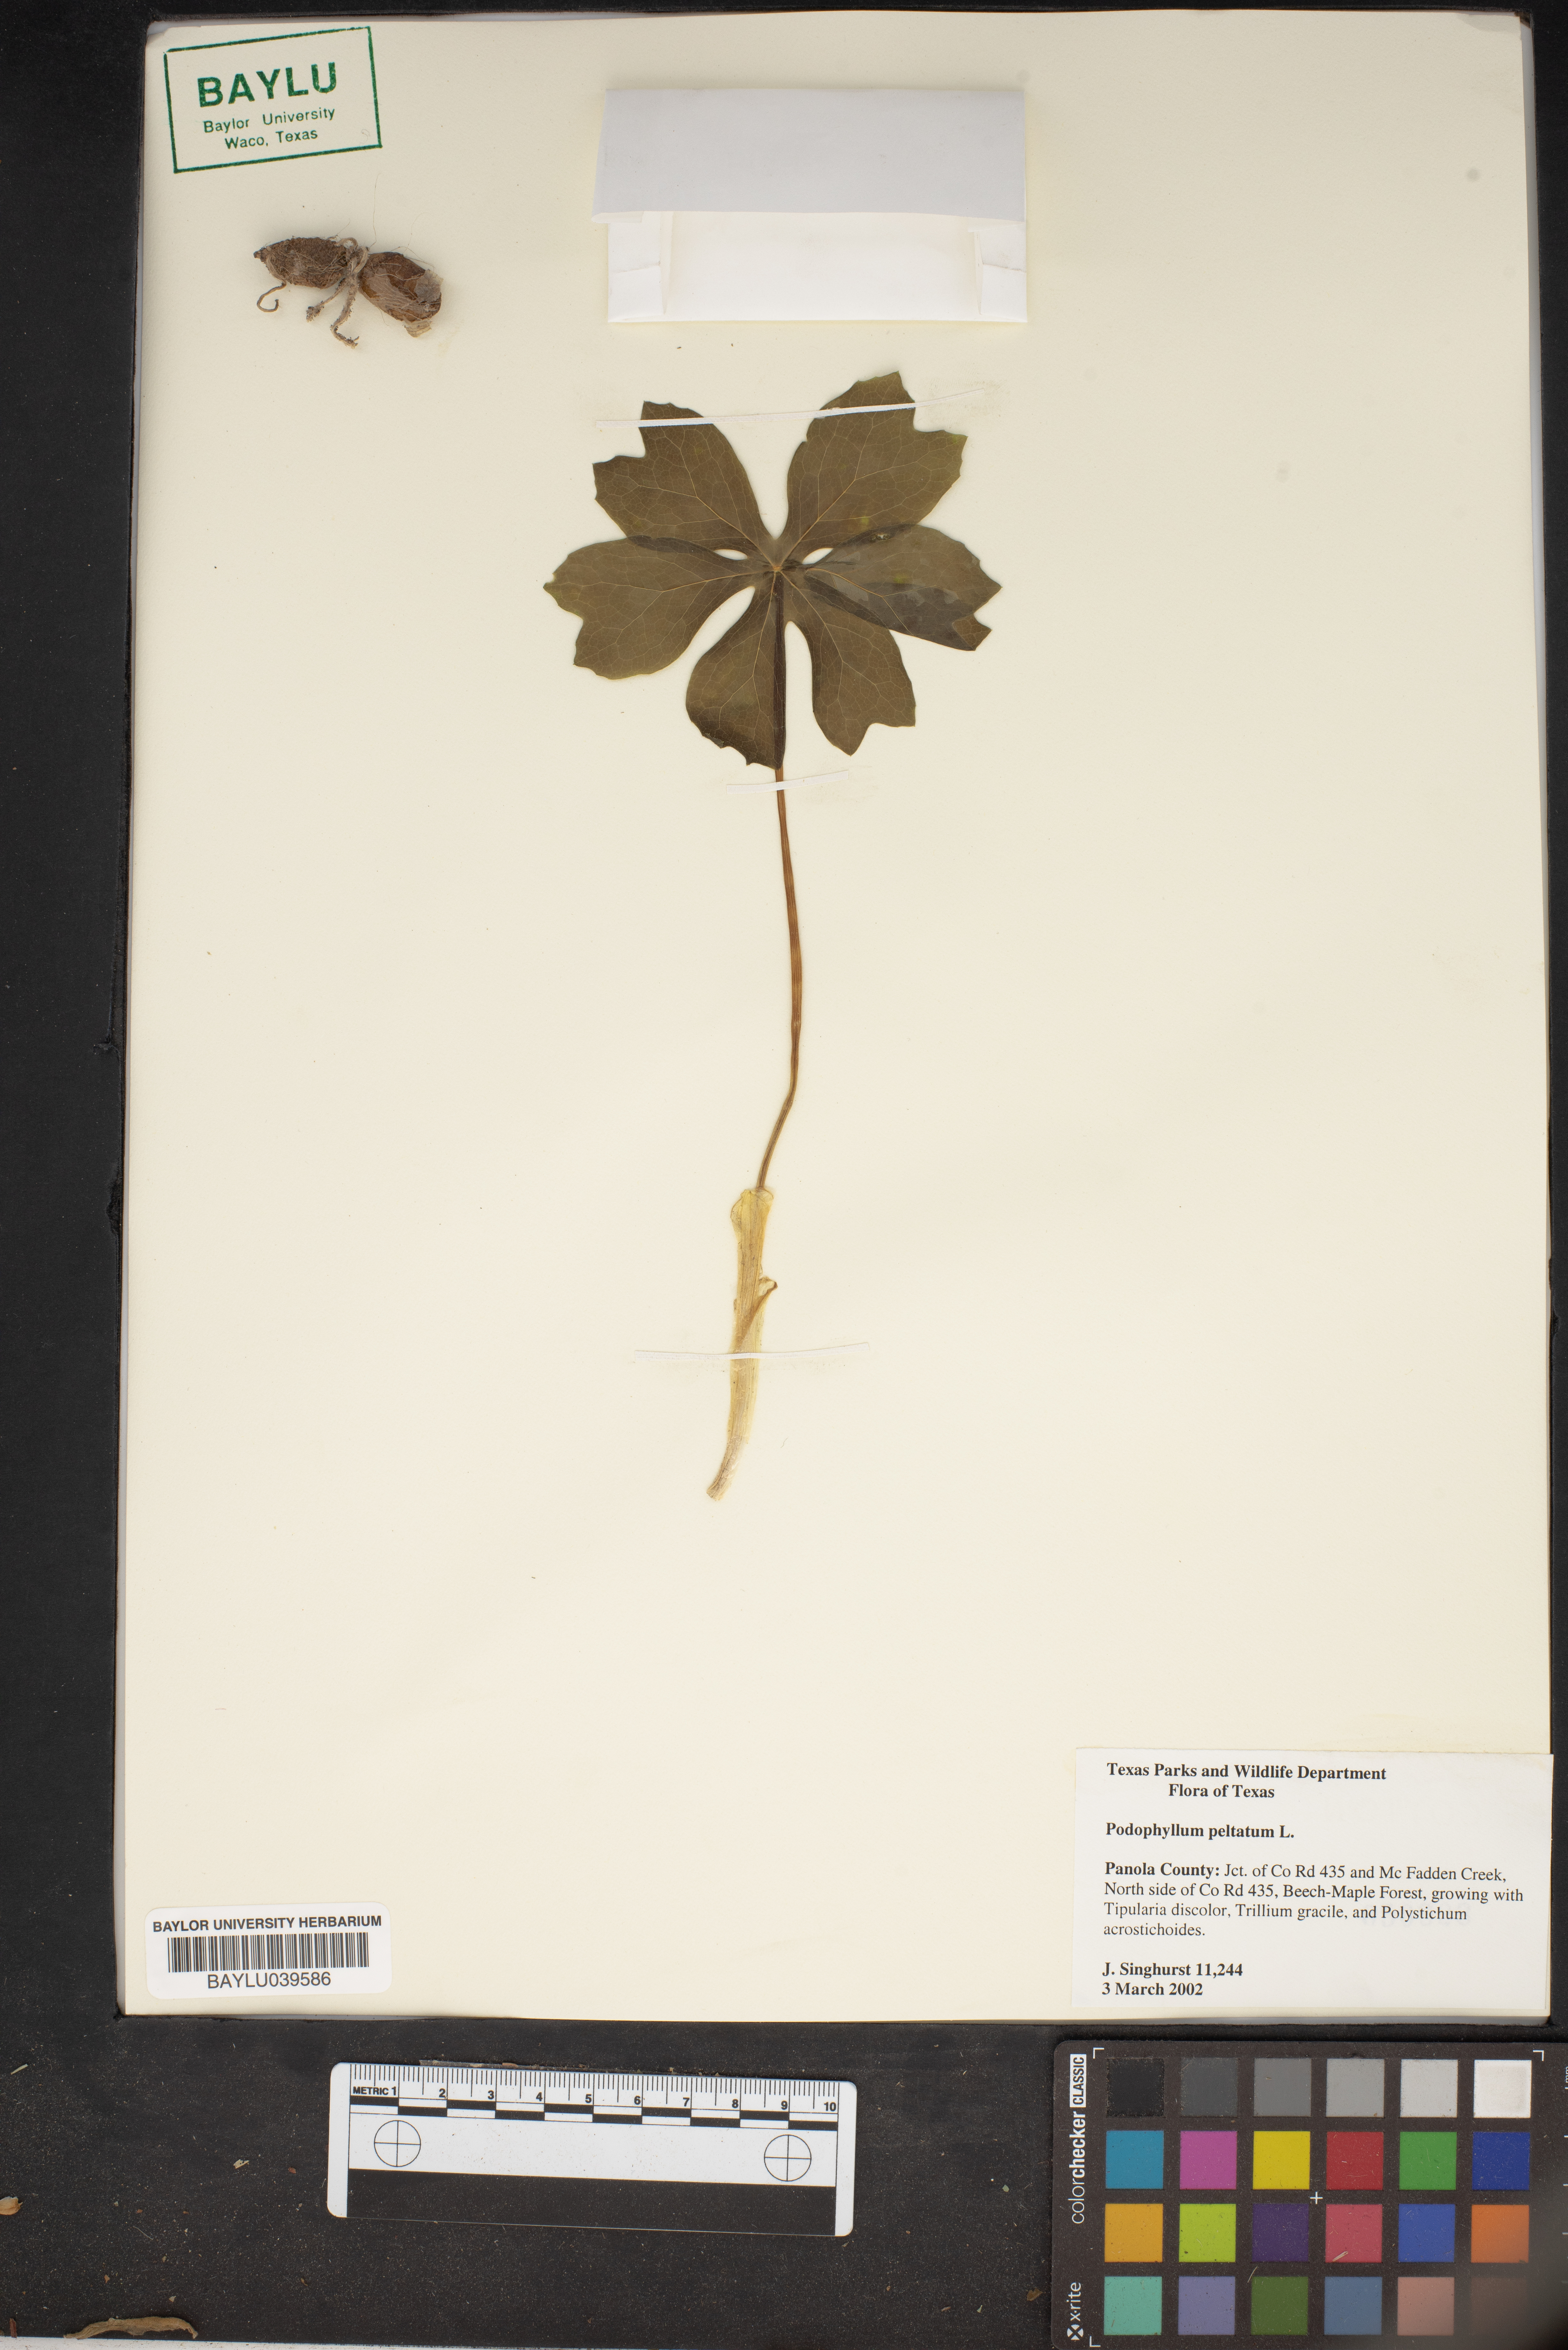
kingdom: Plantae
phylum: Tracheophyta
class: Magnoliopsida
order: Ranunculales
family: Berberidaceae
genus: Podophyllum
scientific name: Podophyllum peltatum
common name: Wild mandrake
